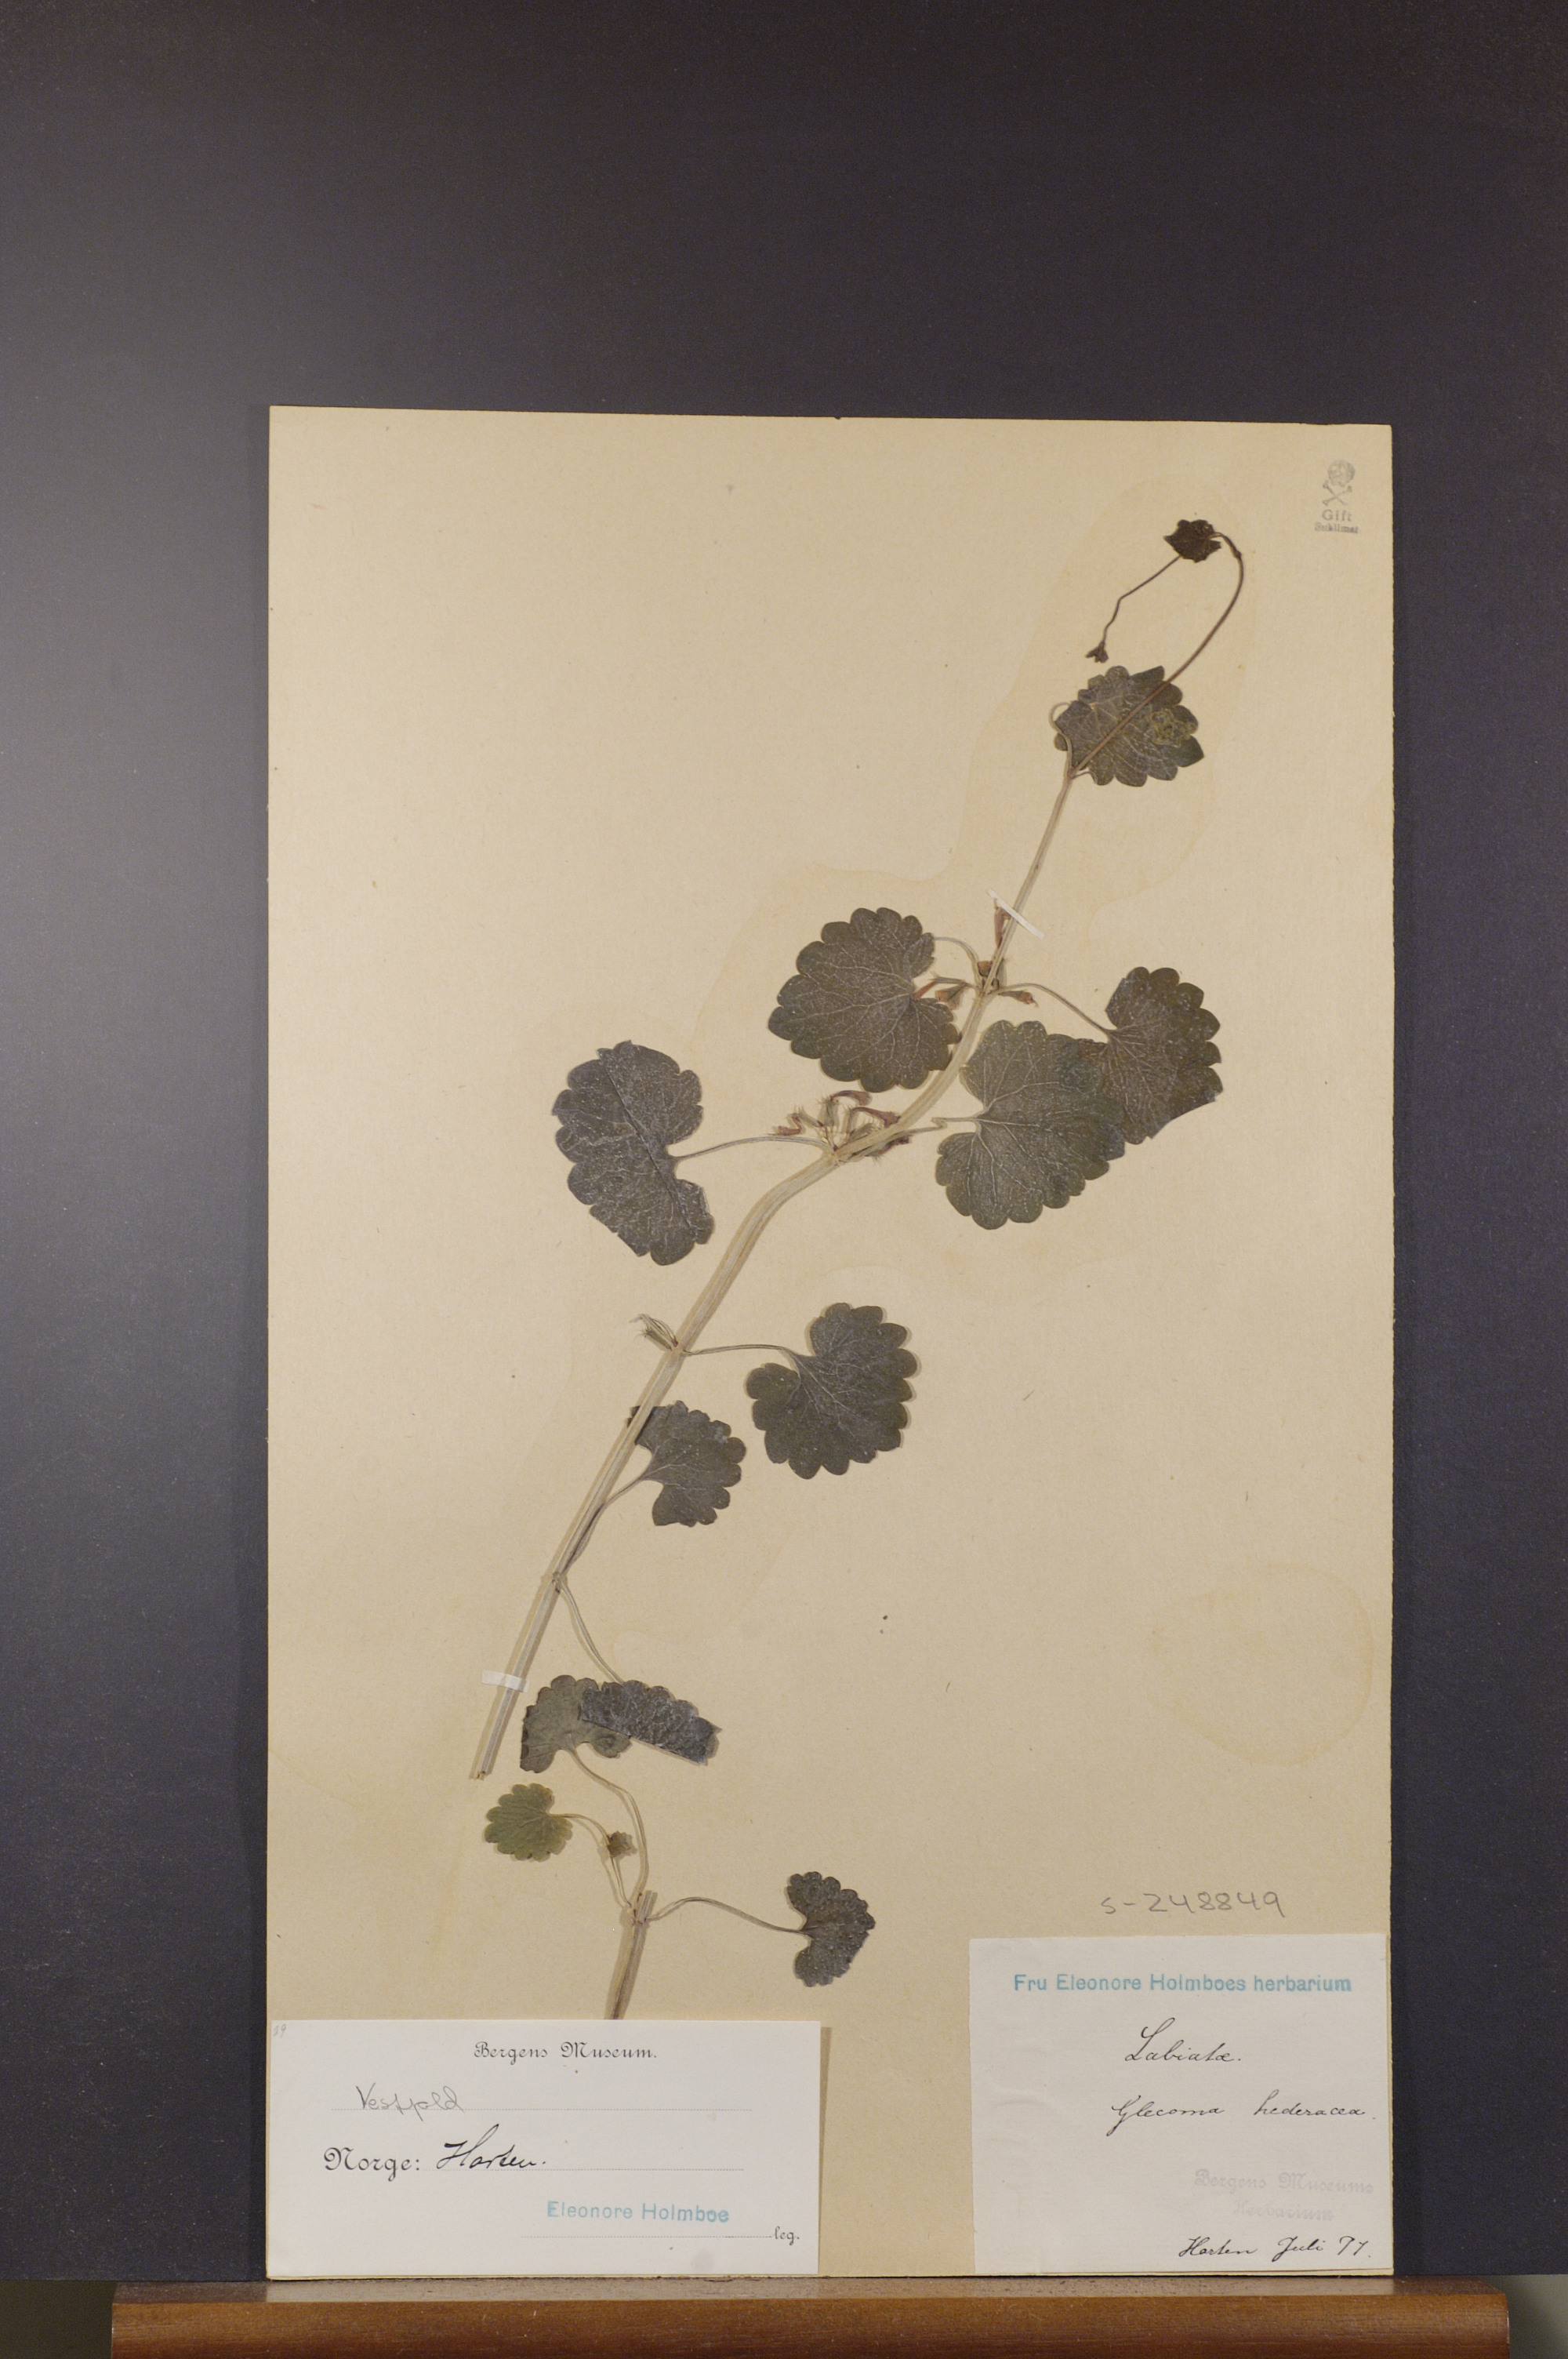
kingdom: Plantae
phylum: Tracheophyta
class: Magnoliopsida
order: Lamiales
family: Lamiaceae
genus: Glechoma
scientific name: Glechoma hederacea
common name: Ground ivy
